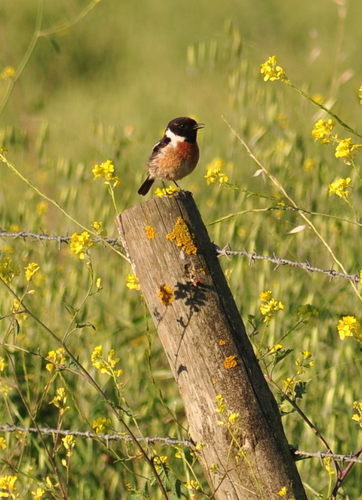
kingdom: Animalia
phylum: Chordata
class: Aves
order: Passeriformes
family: Muscicapidae
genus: Saxicola
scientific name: Saxicola rubicola
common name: European stonechat
